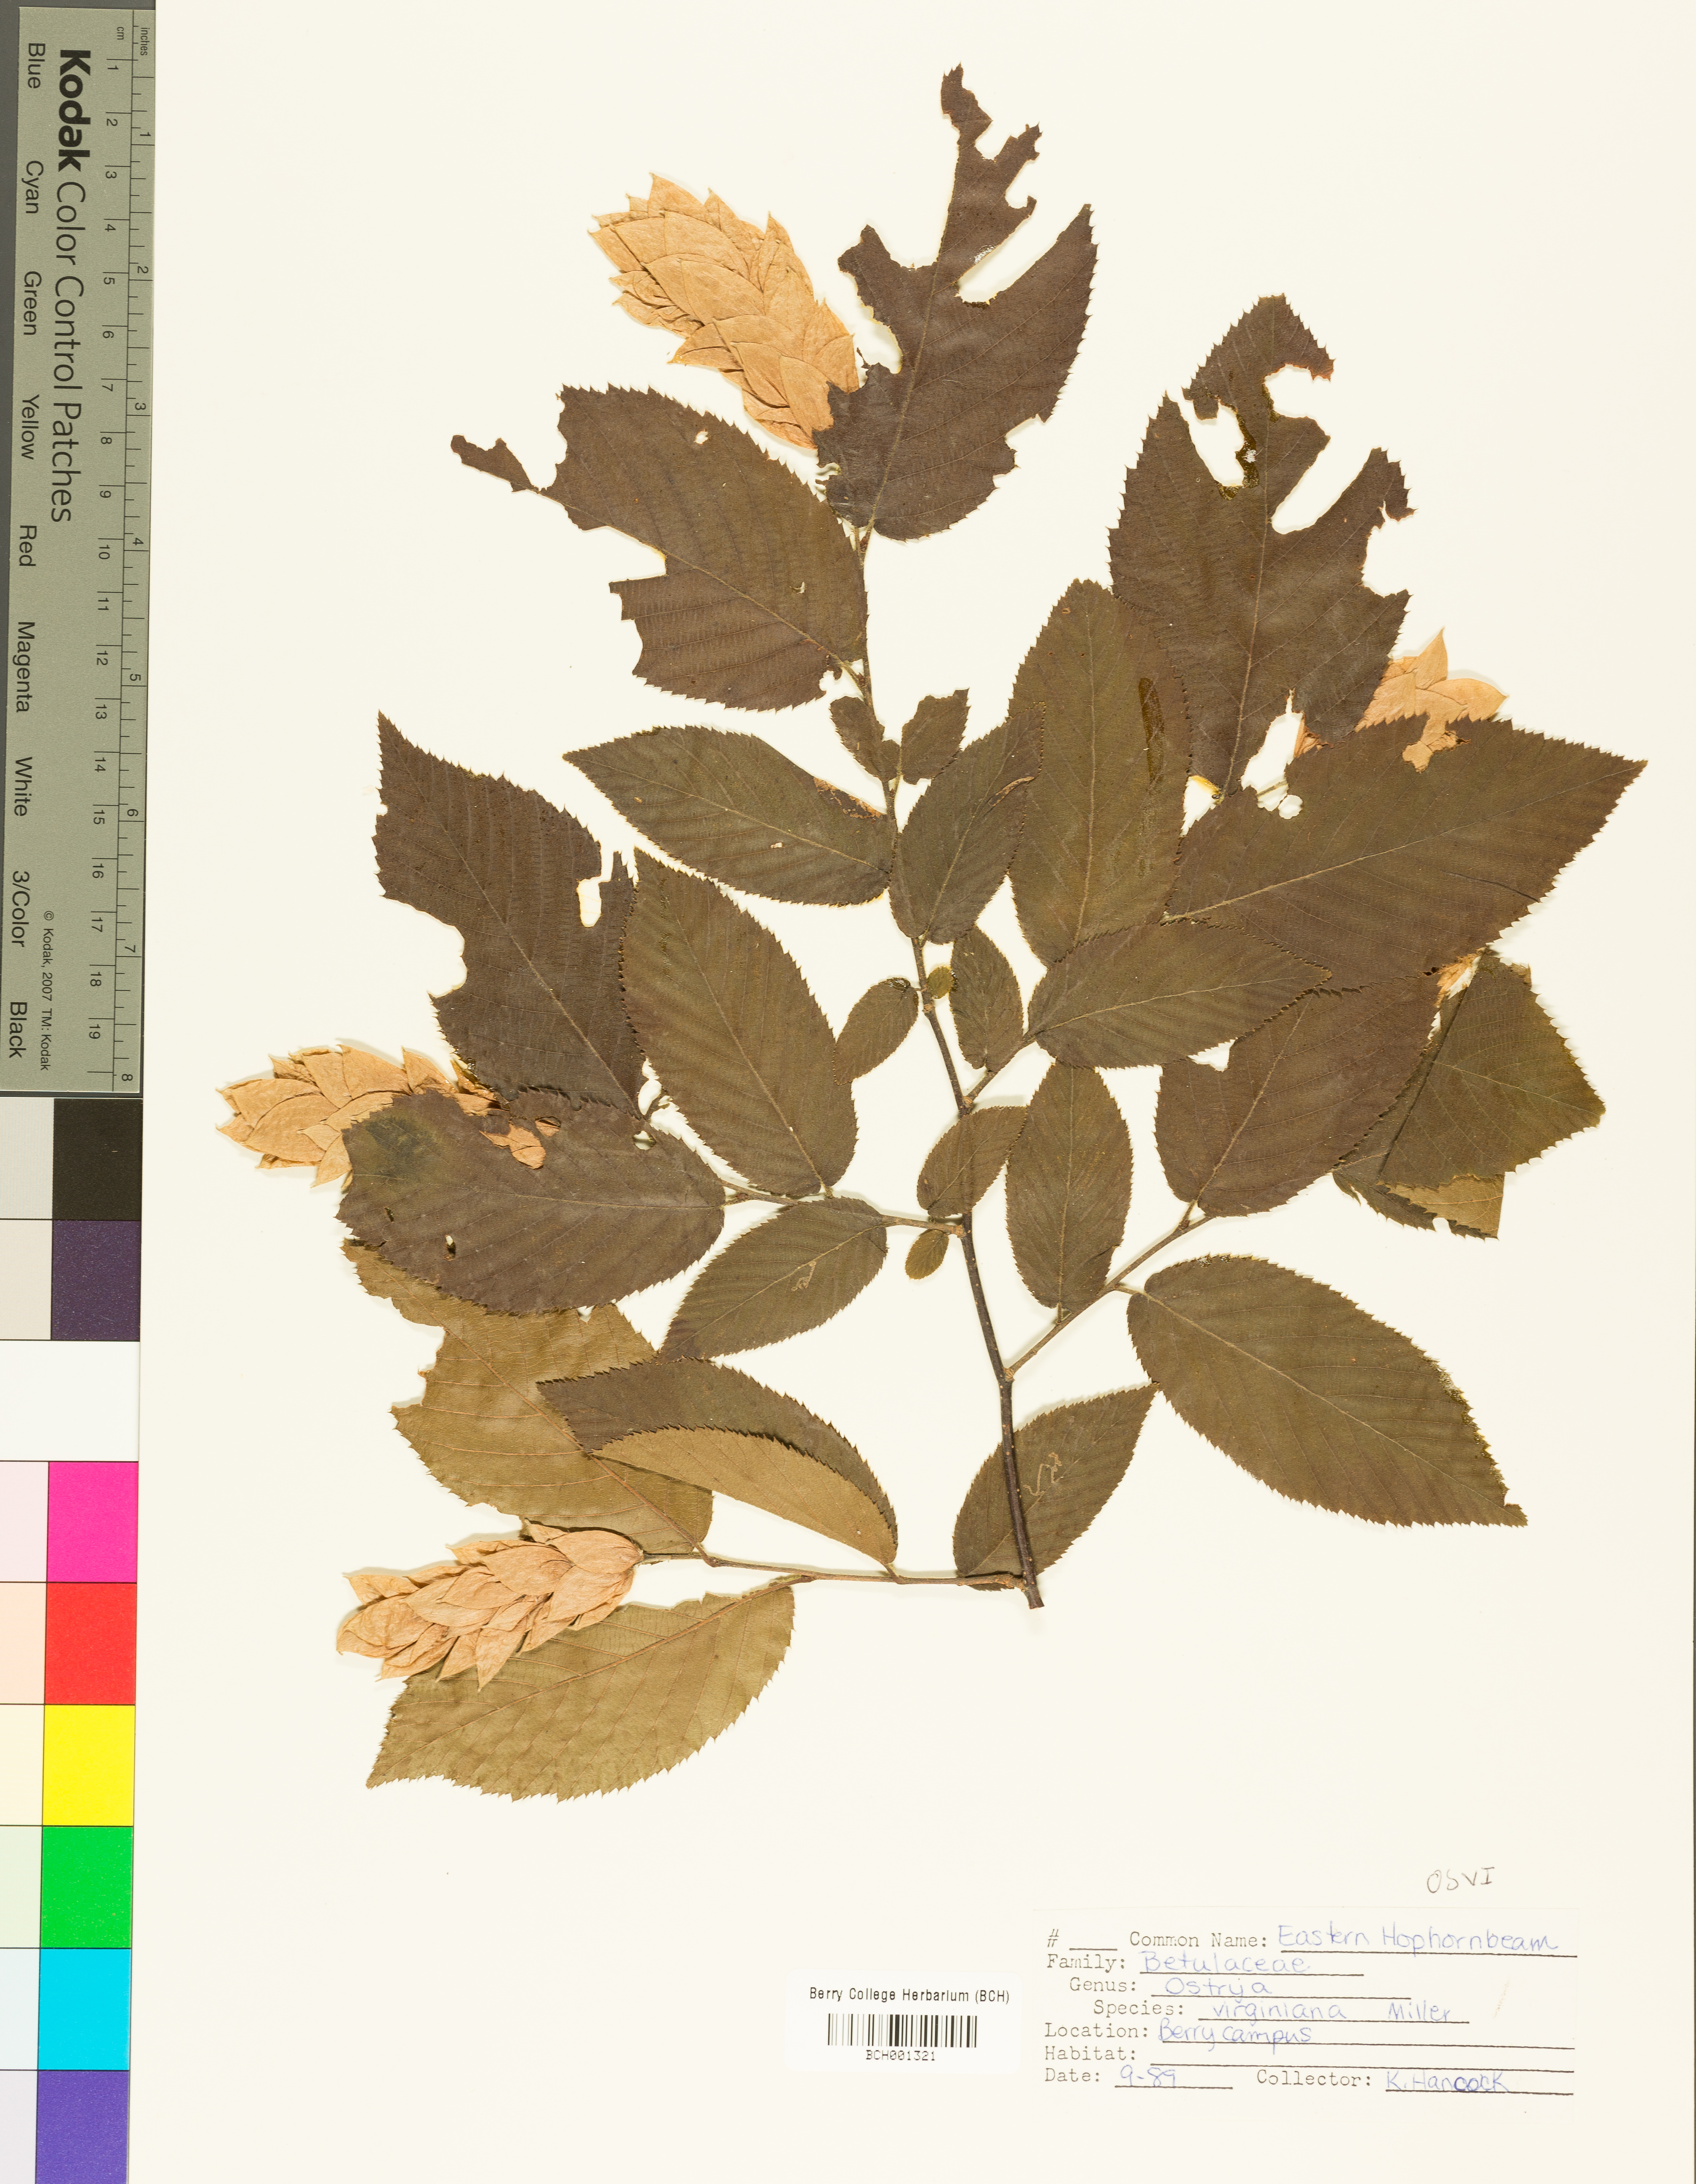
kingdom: Plantae
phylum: Tracheophyta
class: Magnoliopsida
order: Fagales
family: Betulaceae
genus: Ostrya
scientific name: Ostrya virginiana
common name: Ironwood
